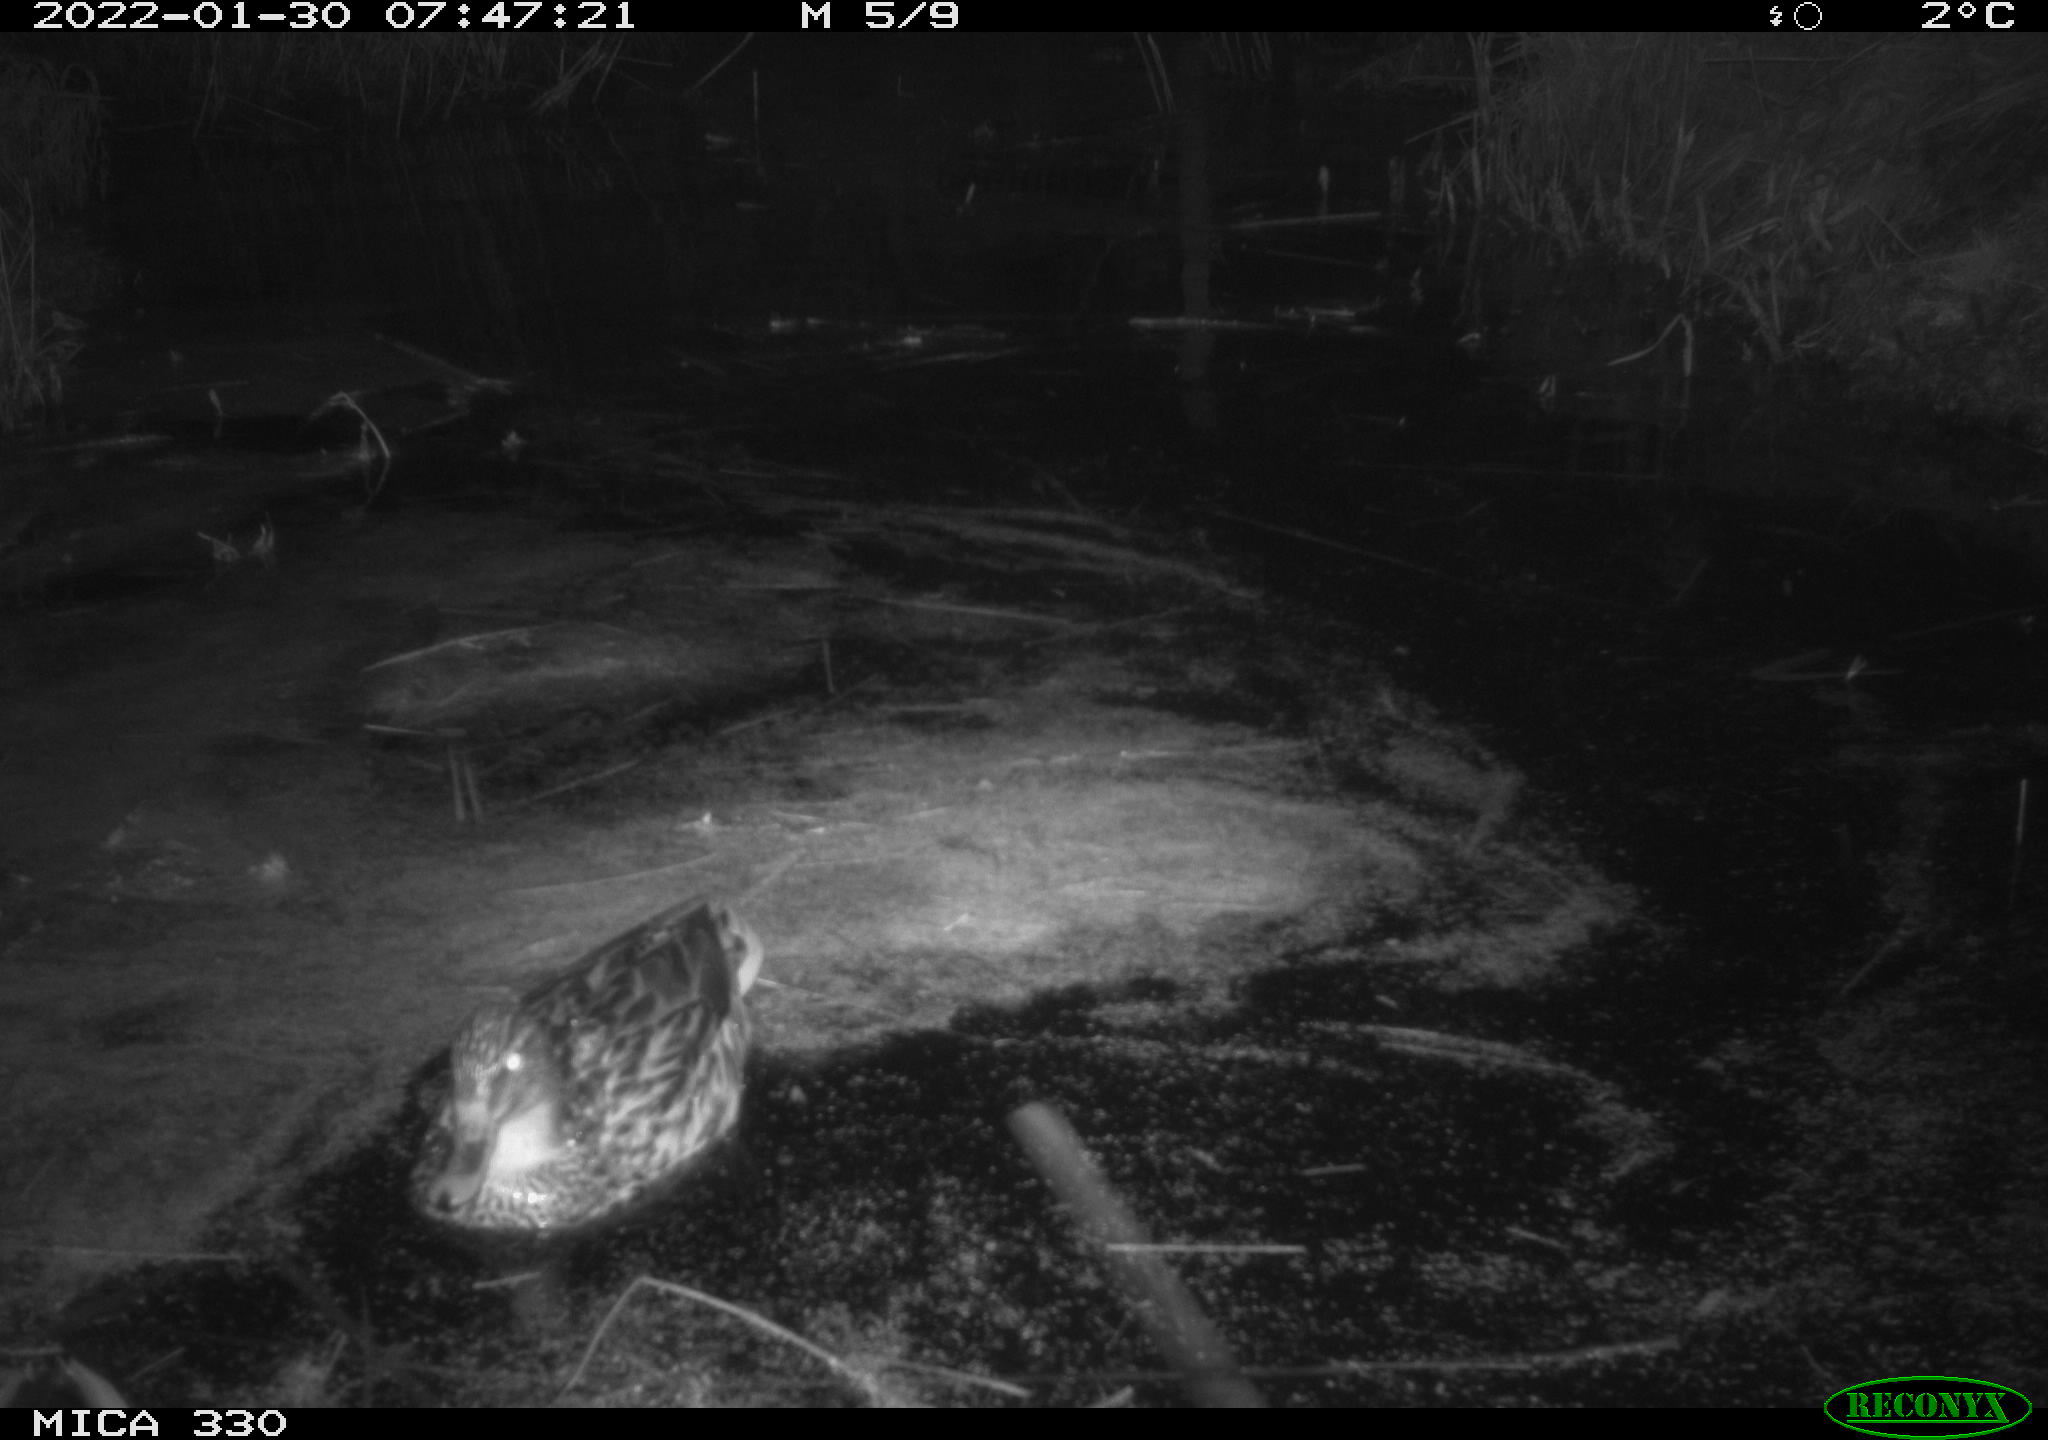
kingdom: Animalia
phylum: Chordata
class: Aves
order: Anseriformes
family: Anatidae
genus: Anas
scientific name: Anas platyrhynchos
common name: Mallard
